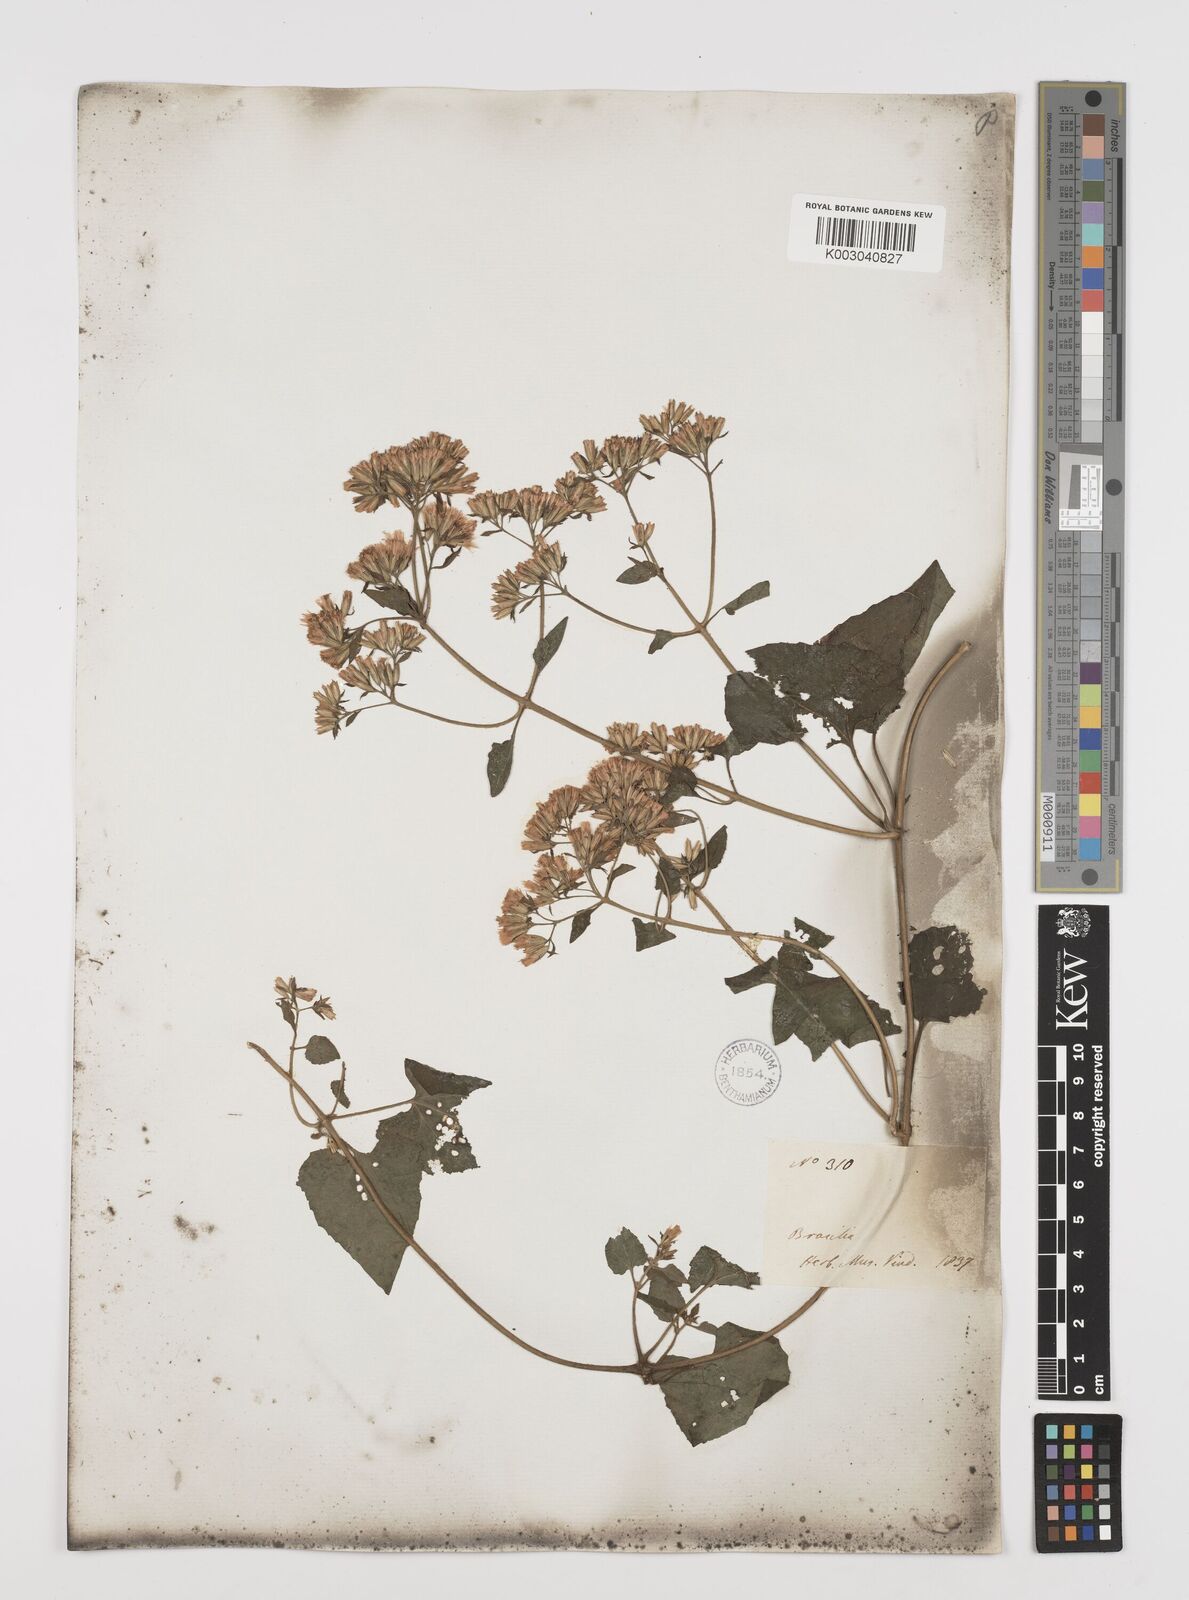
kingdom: Plantae
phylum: Tracheophyta
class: Magnoliopsida
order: Asterales
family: Asteraceae
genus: Mikania
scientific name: Mikania cordifolia
